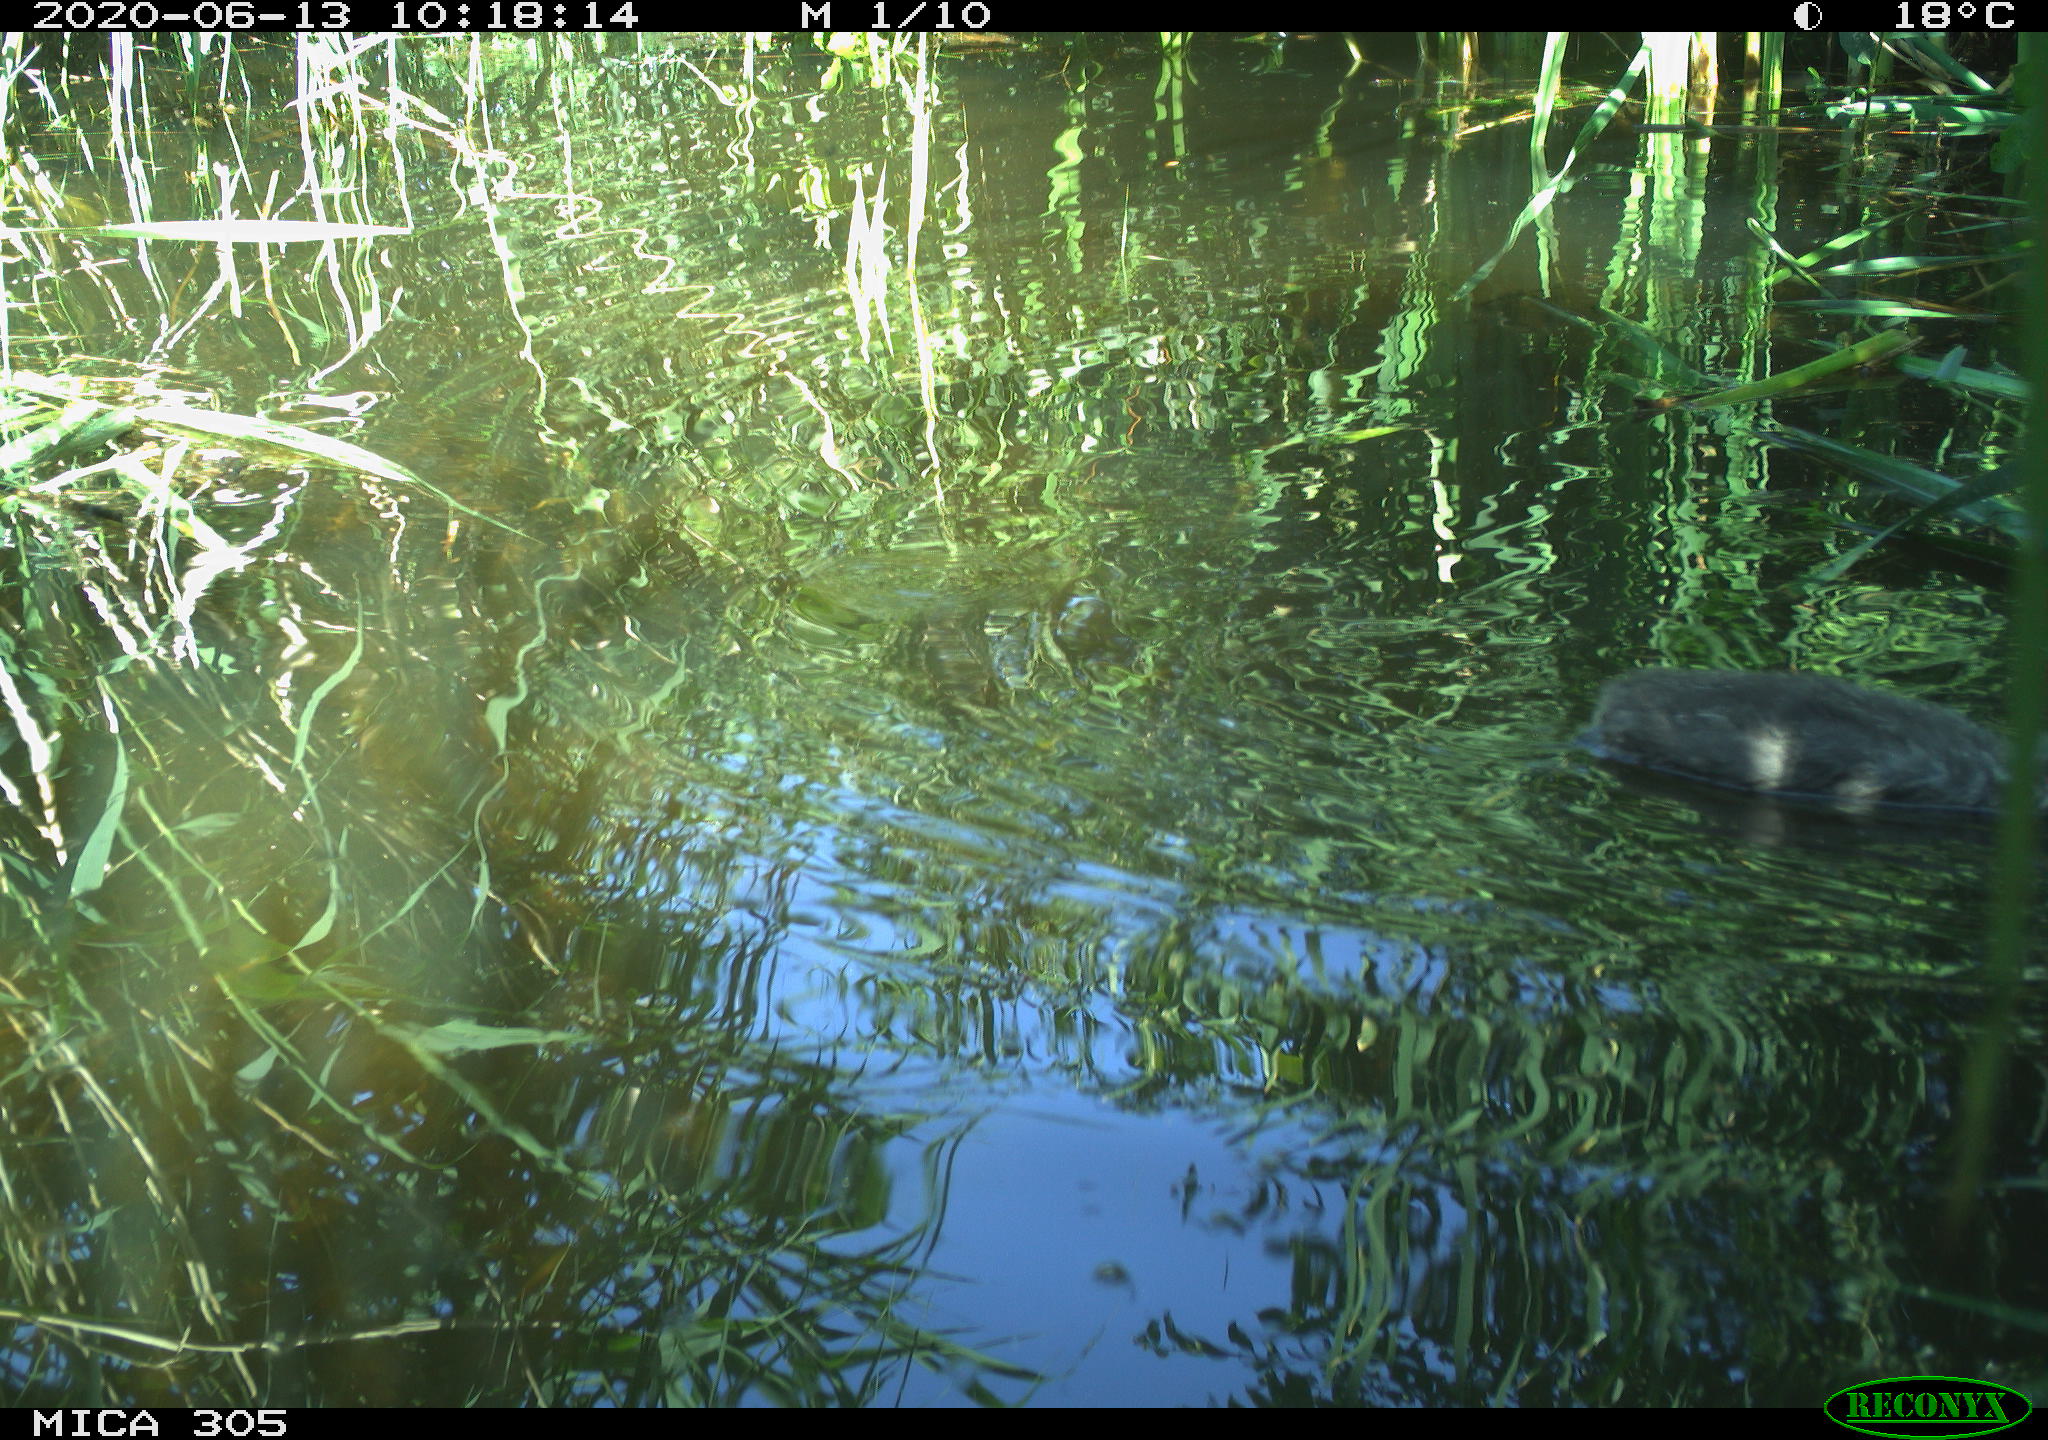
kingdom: Animalia
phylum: Chordata
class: Aves
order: Podicipediformes
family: Podicipedidae
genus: Podiceps
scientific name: Podiceps cristatus
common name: Great crested grebe
